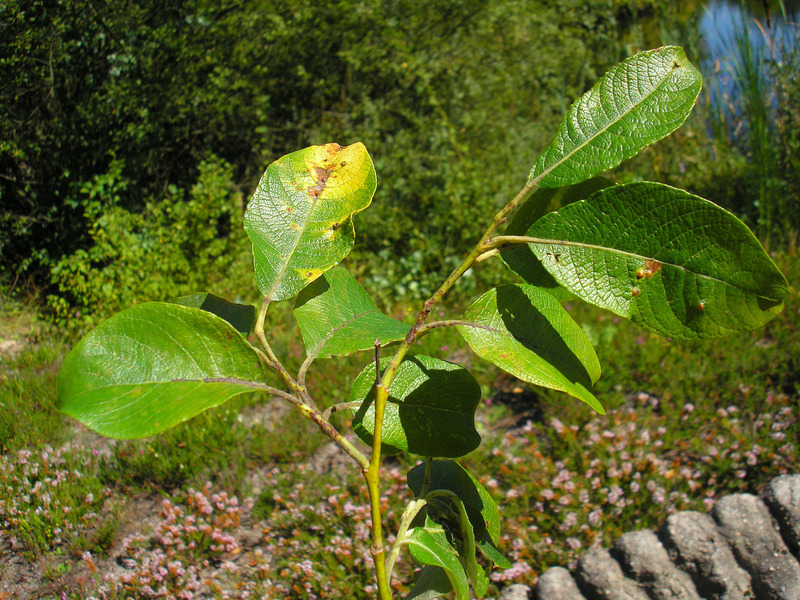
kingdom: Animalia
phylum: Arthropoda
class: Insecta
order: Diptera
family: Cecidomyiidae
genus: Iteomyia
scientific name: Iteomyia capreae
